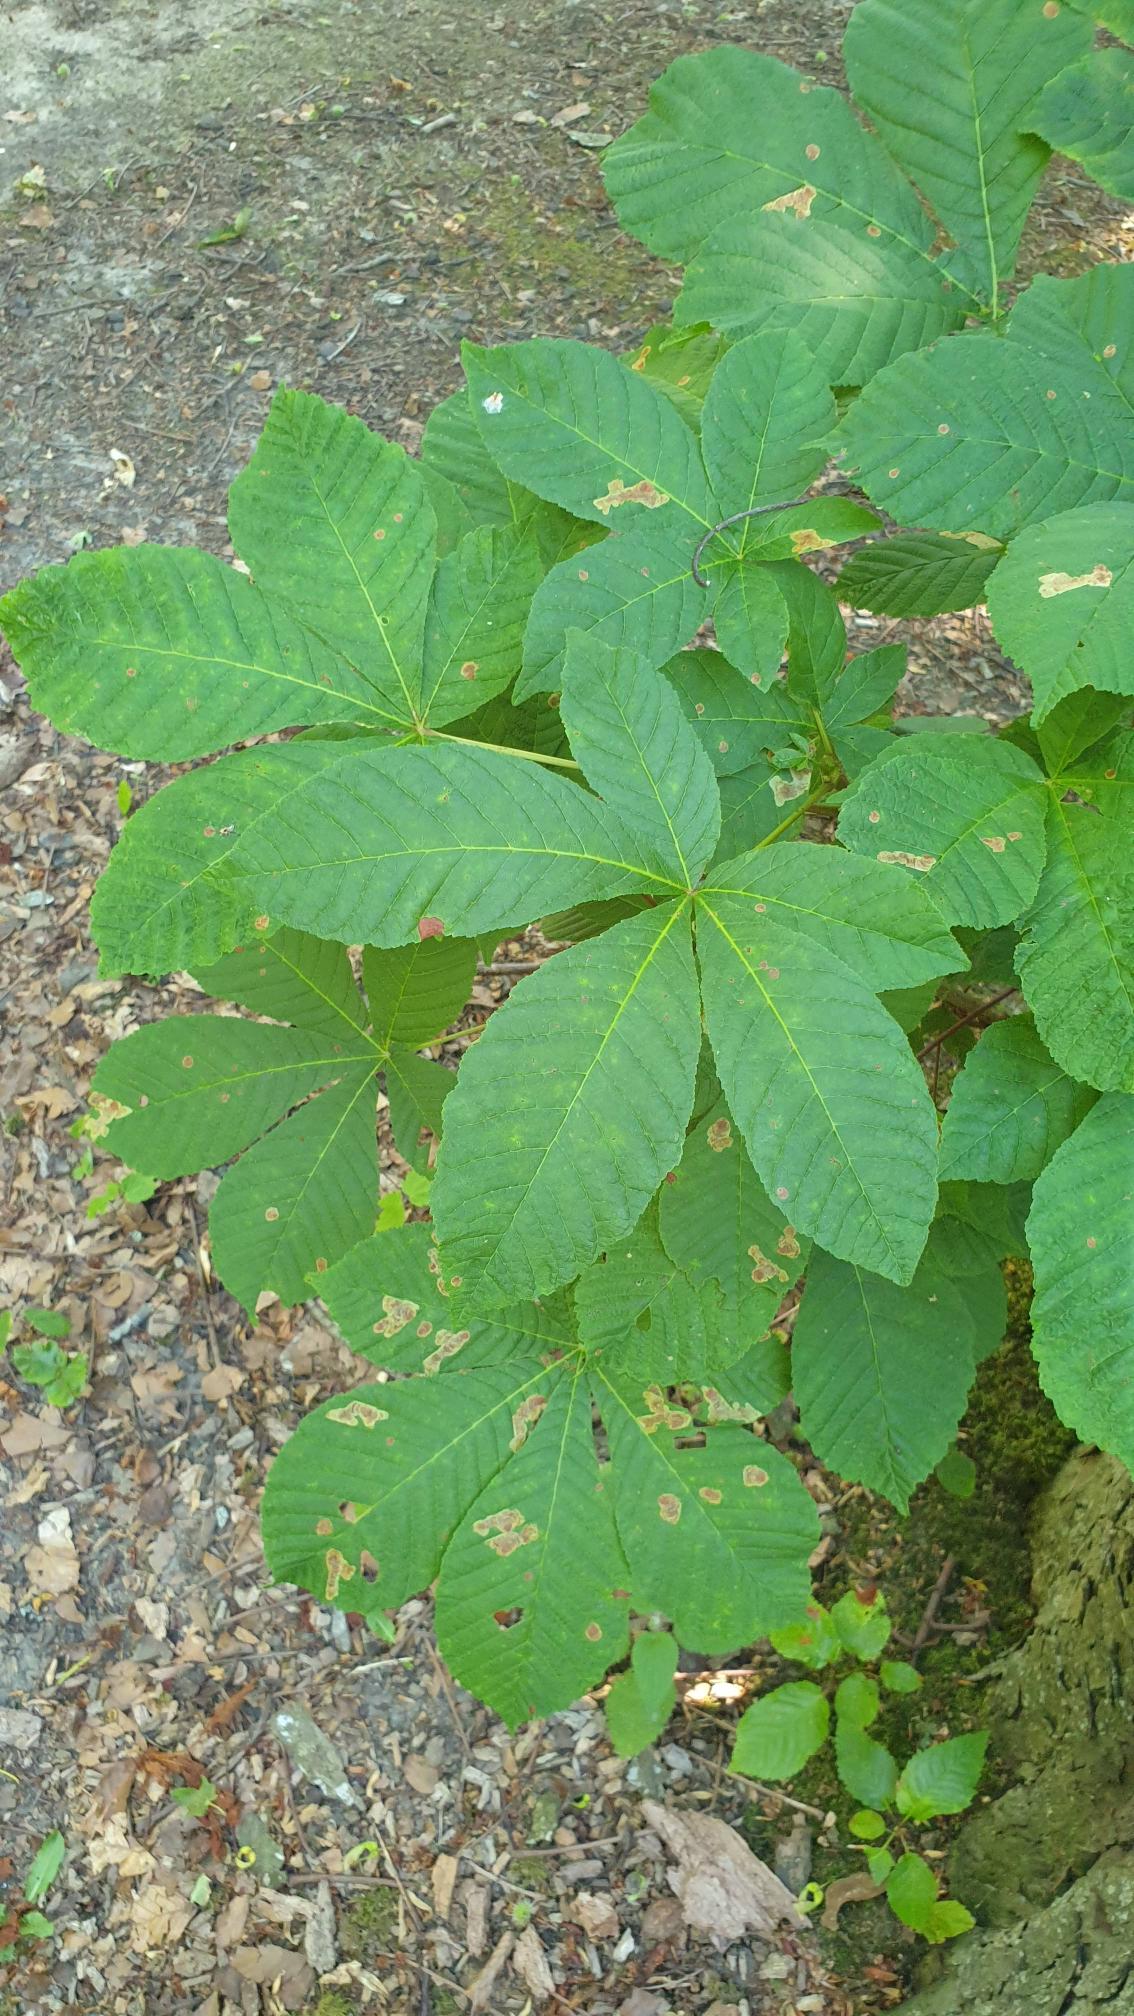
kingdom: Plantae
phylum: Tracheophyta
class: Magnoliopsida
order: Sapindales
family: Sapindaceae
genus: Aesculus
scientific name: Aesculus hippocastanum
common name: Hestekastanie
